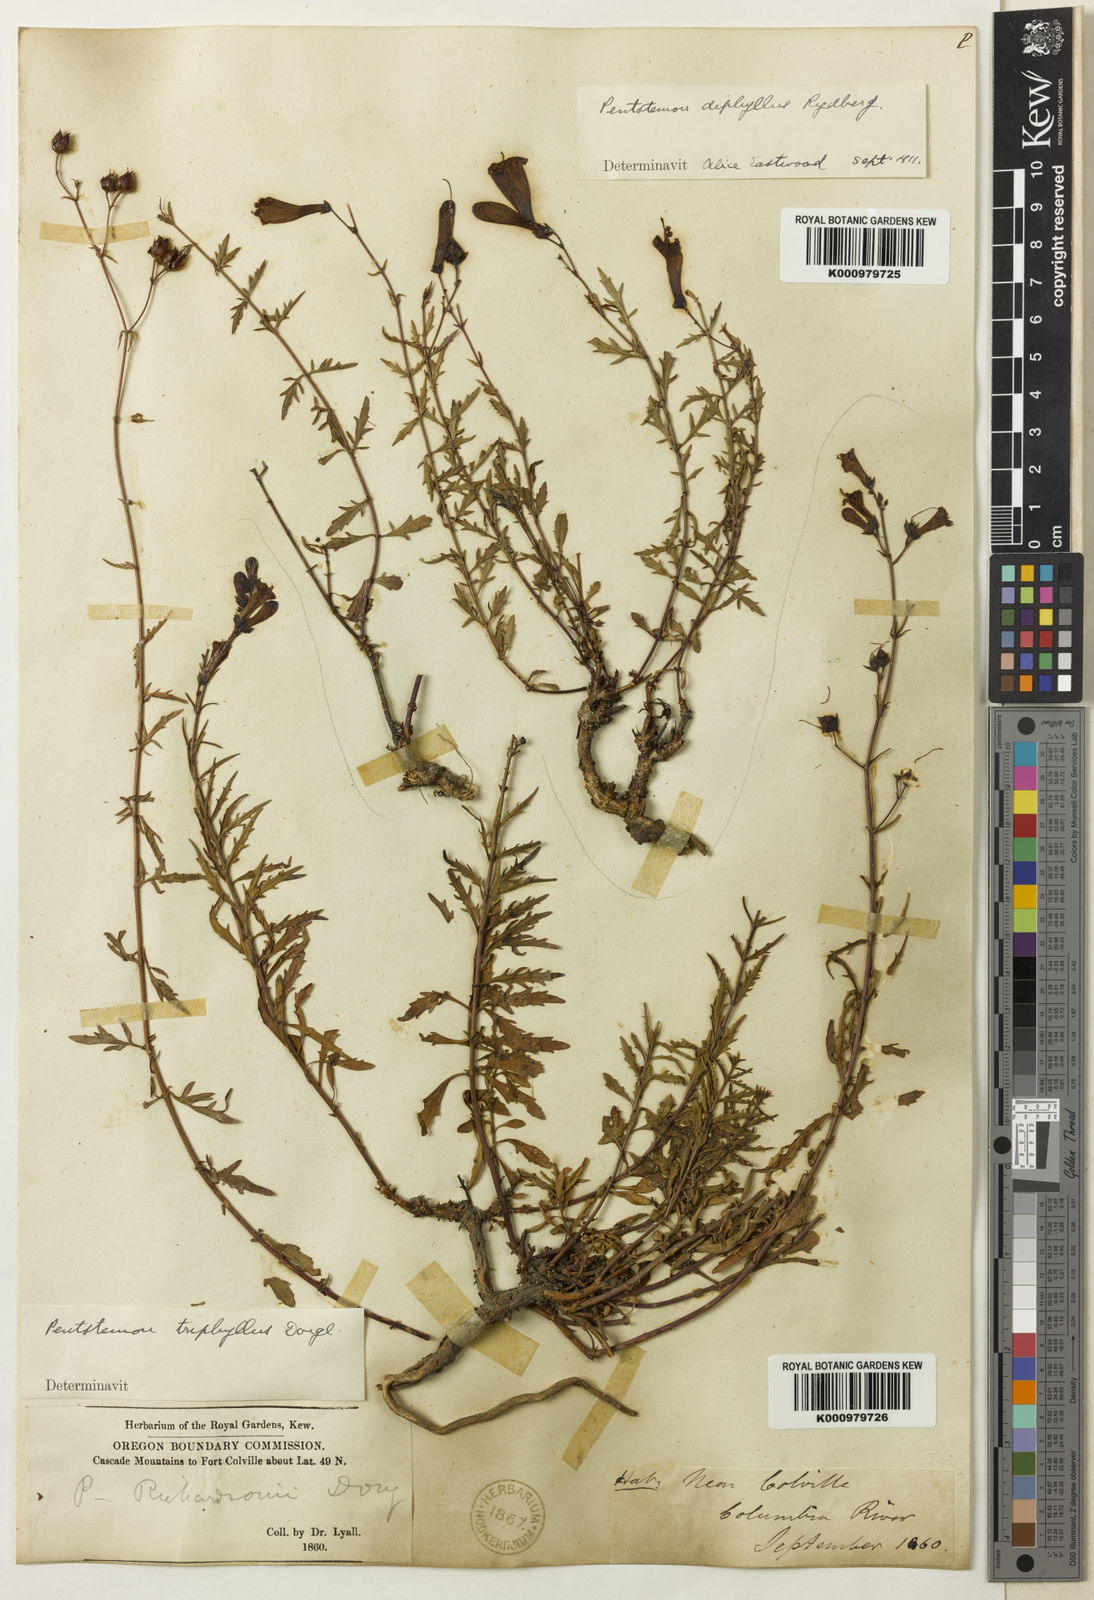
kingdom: Plantae
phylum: Tracheophyta
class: Magnoliopsida
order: Lamiales
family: Plantaginaceae
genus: Penstemon
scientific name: Penstemon triphyllus
